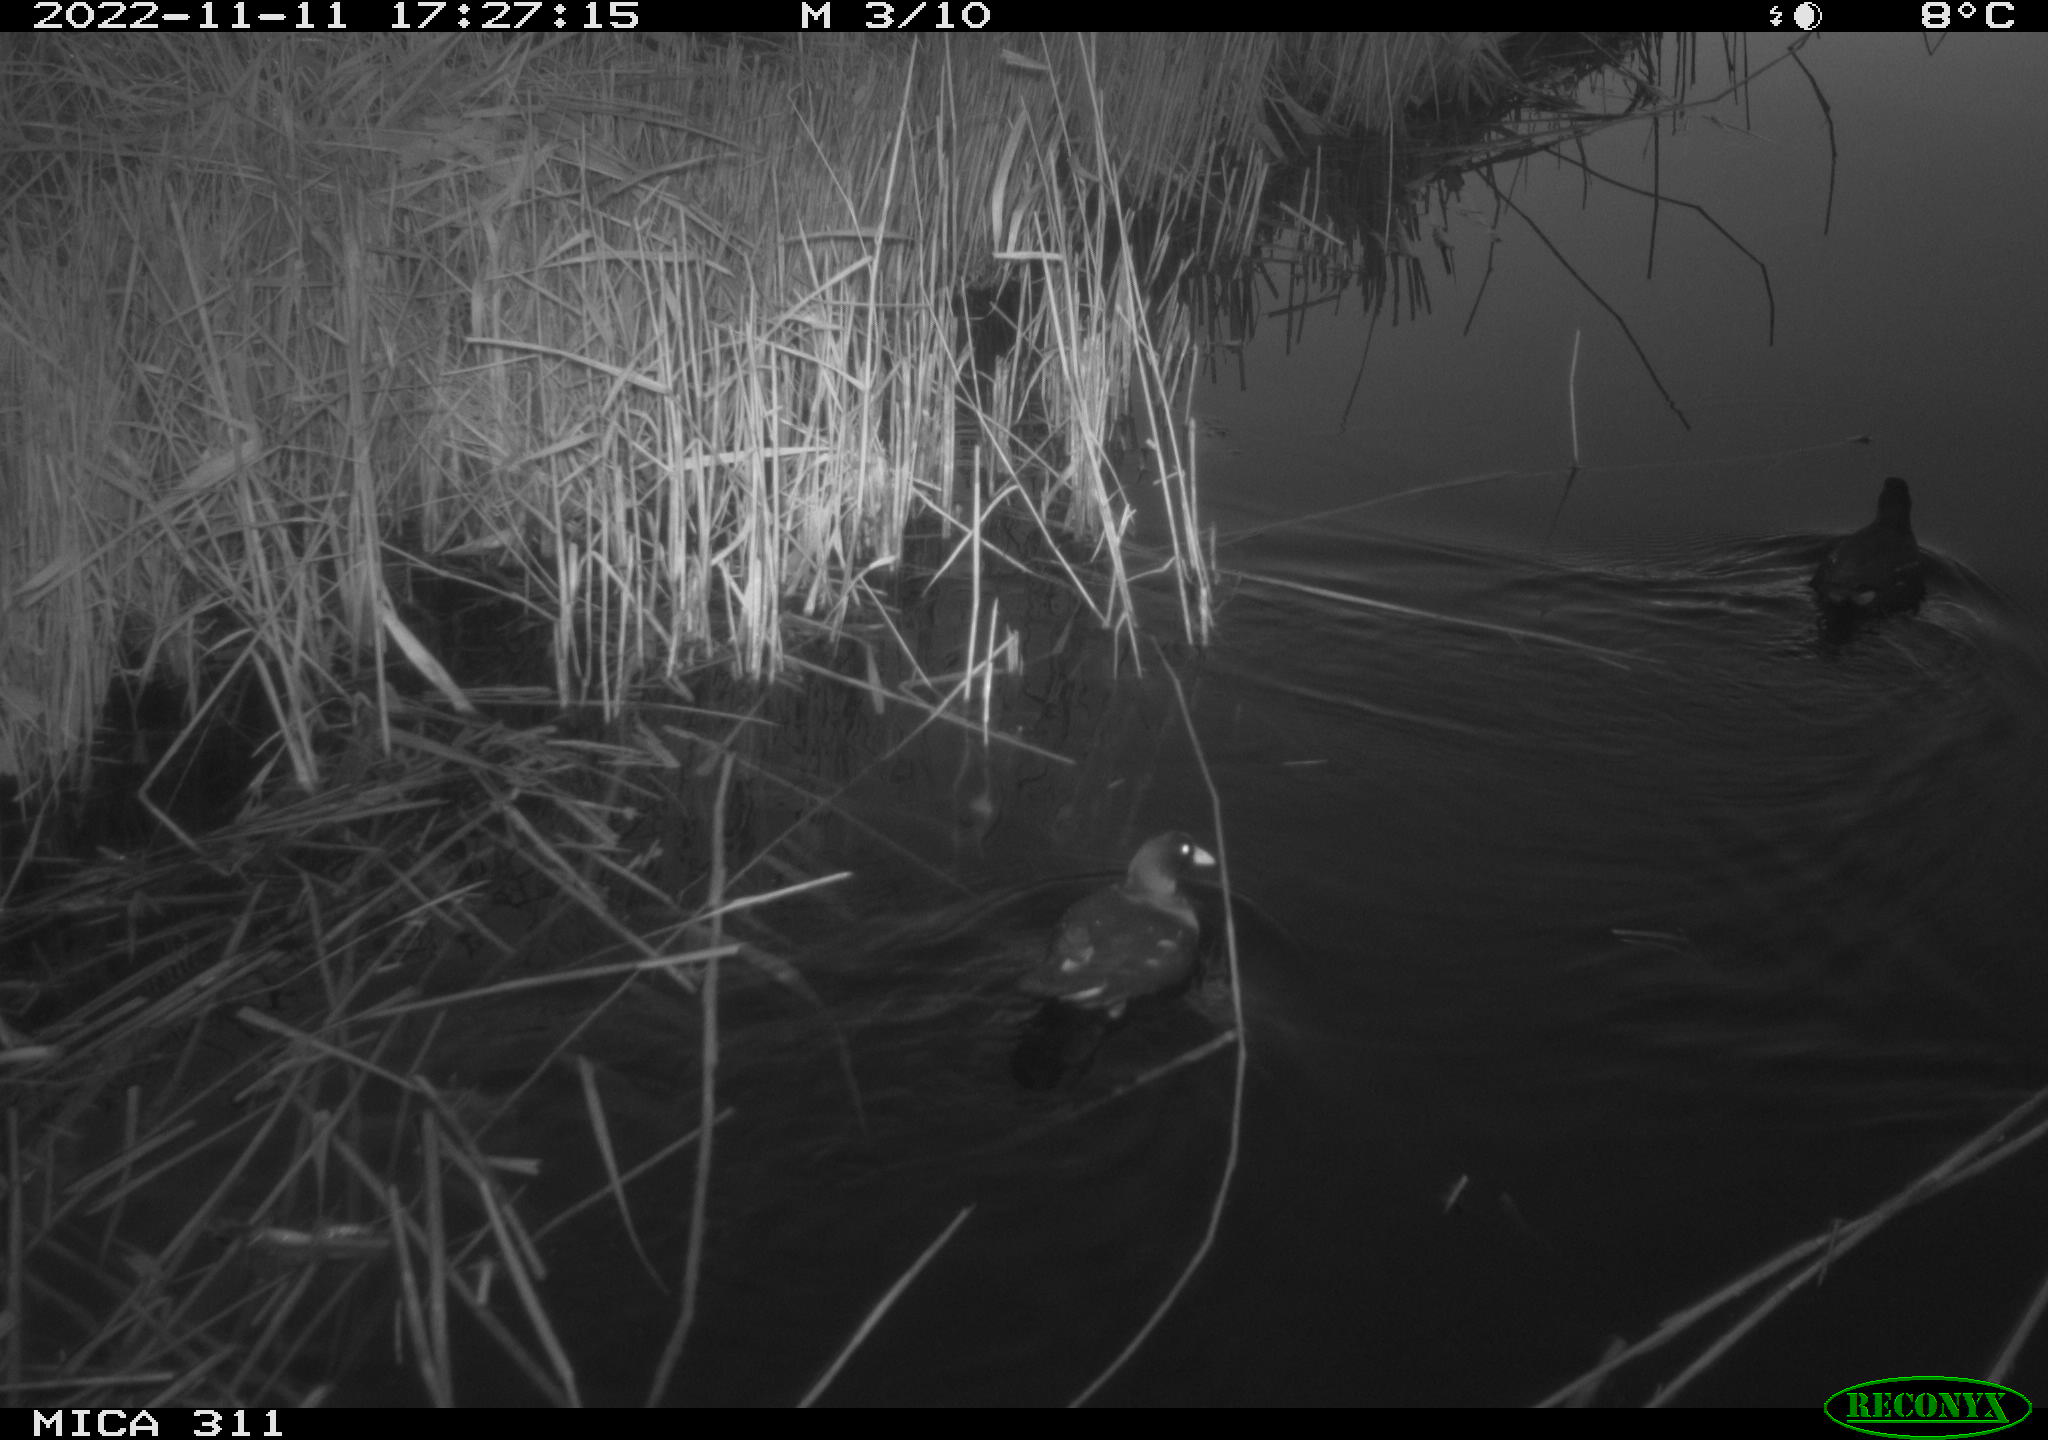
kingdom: Animalia
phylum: Chordata
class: Aves
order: Gruiformes
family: Rallidae
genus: Gallinula
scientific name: Gallinula chloropus
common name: Common moorhen
